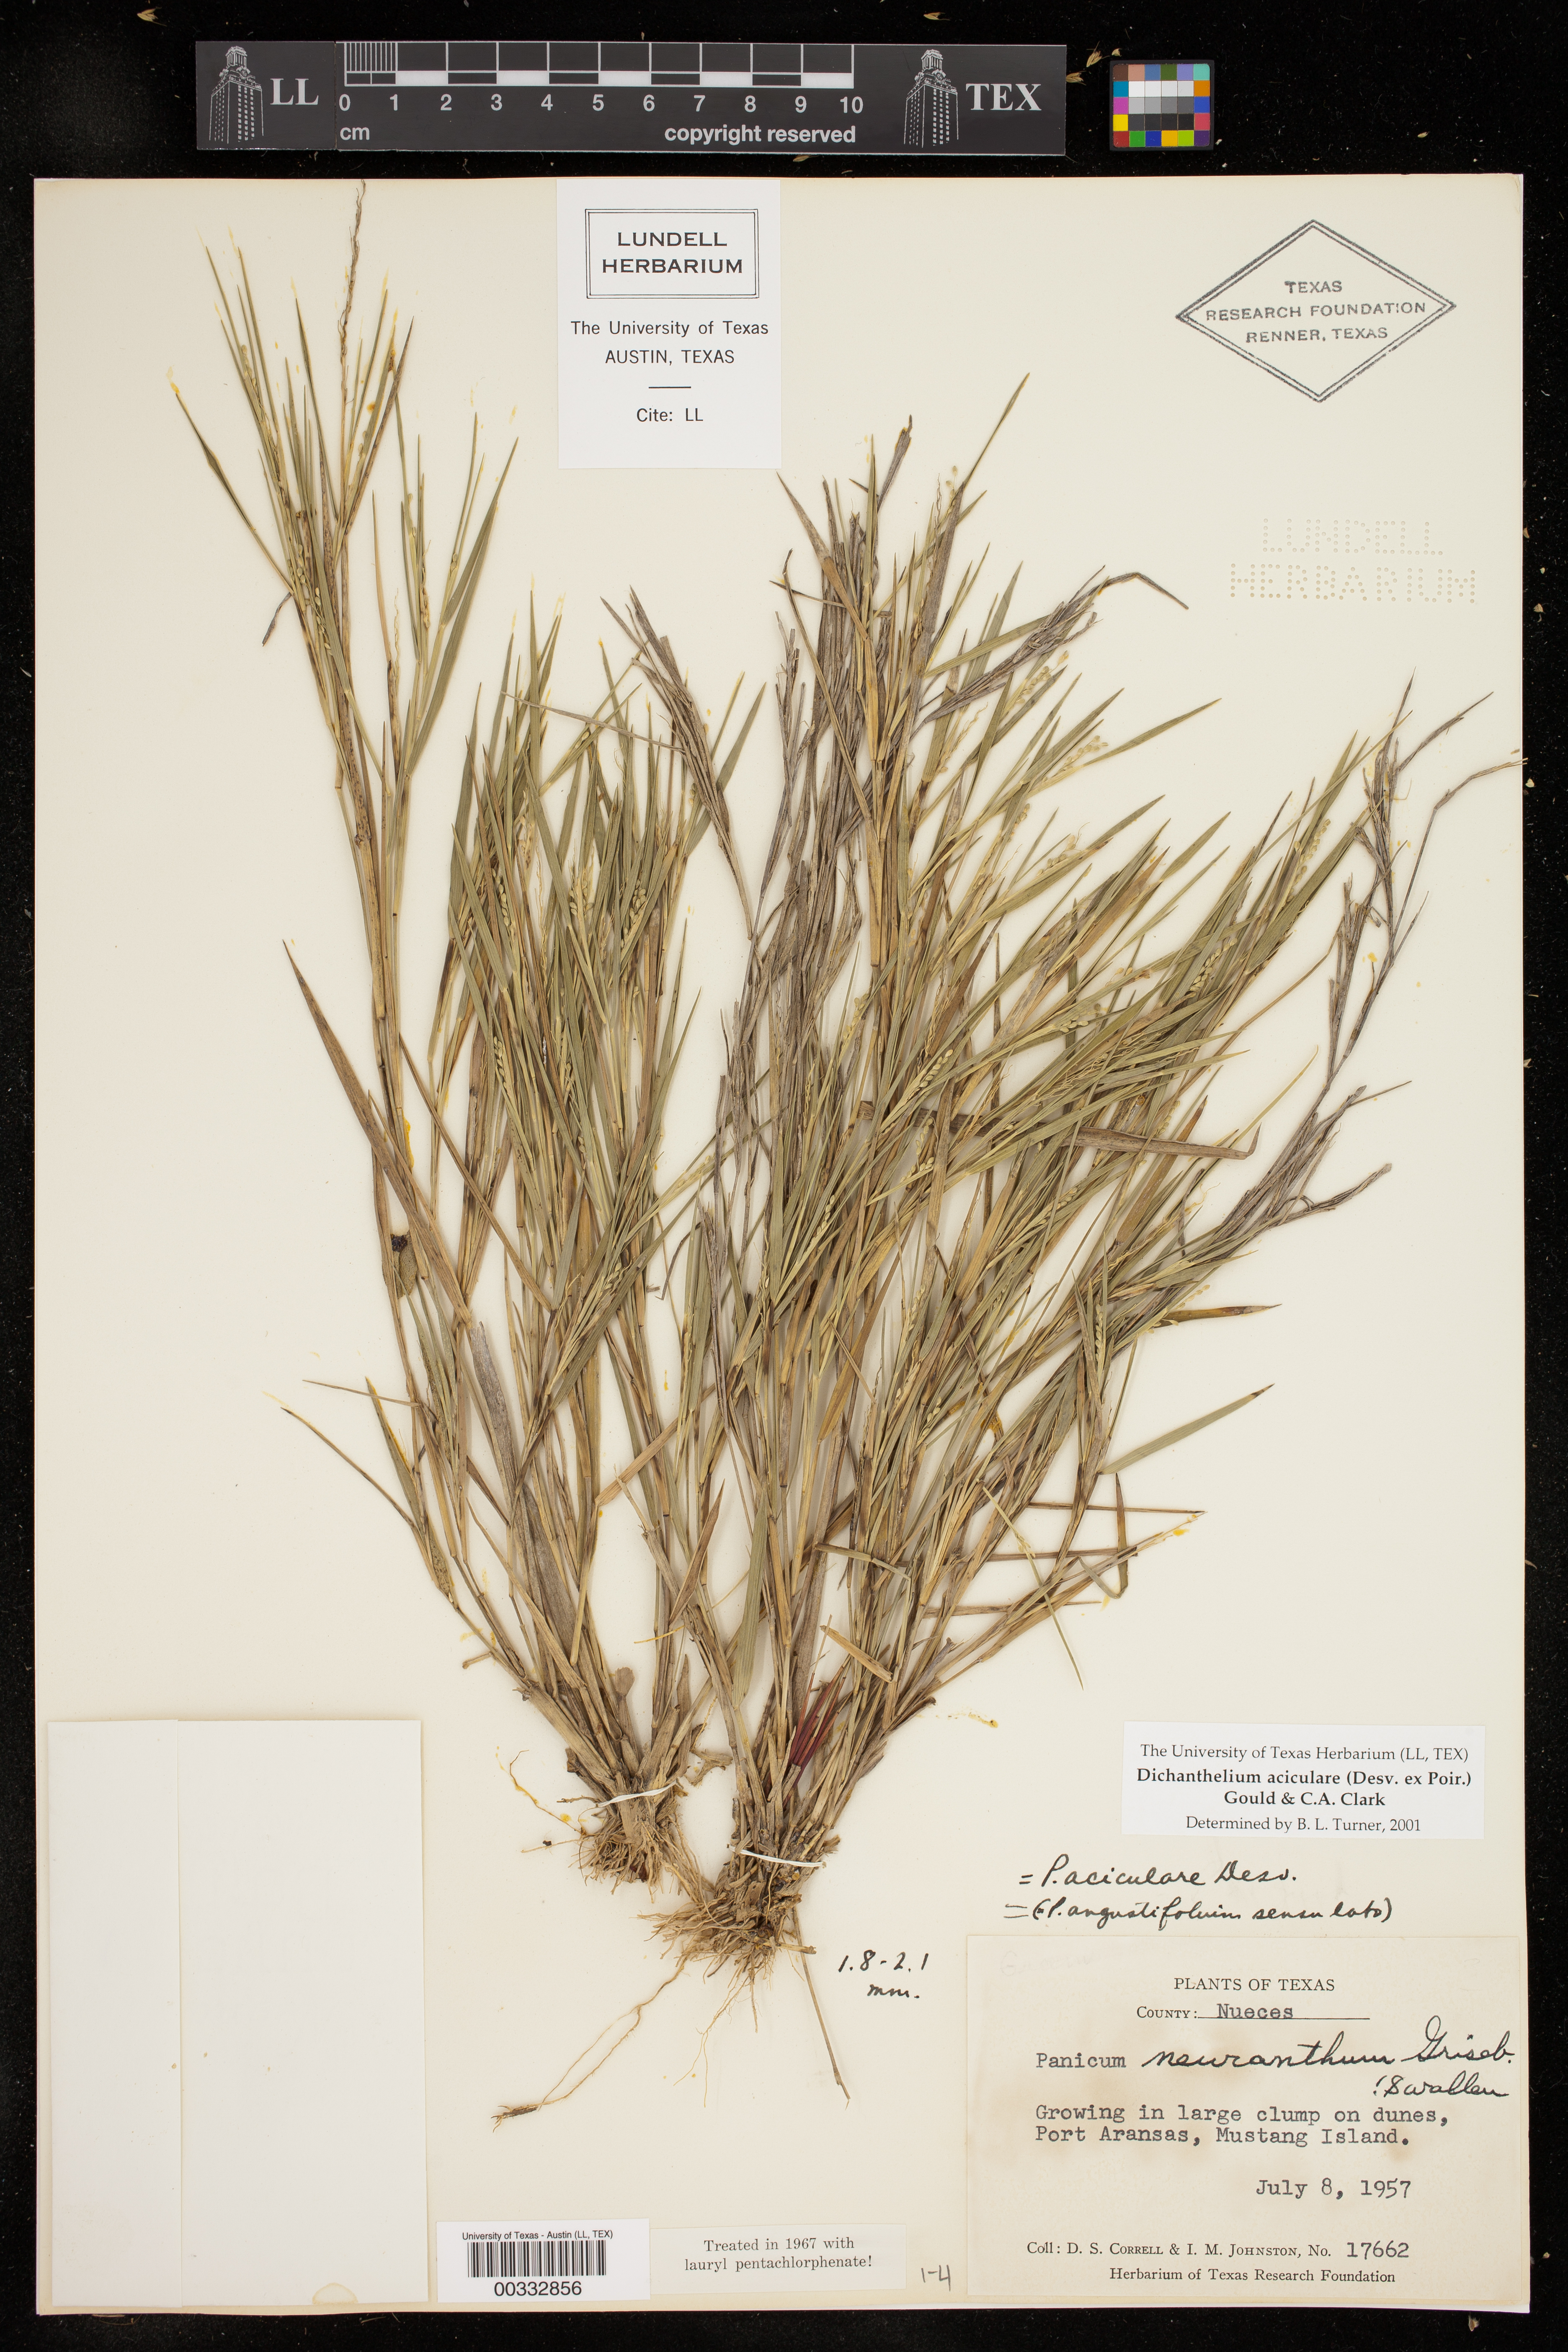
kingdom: Plantae
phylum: Tracheophyta
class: Liliopsida
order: Poales
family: Poaceae
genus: Dichanthelium
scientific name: Dichanthelium aciculare
